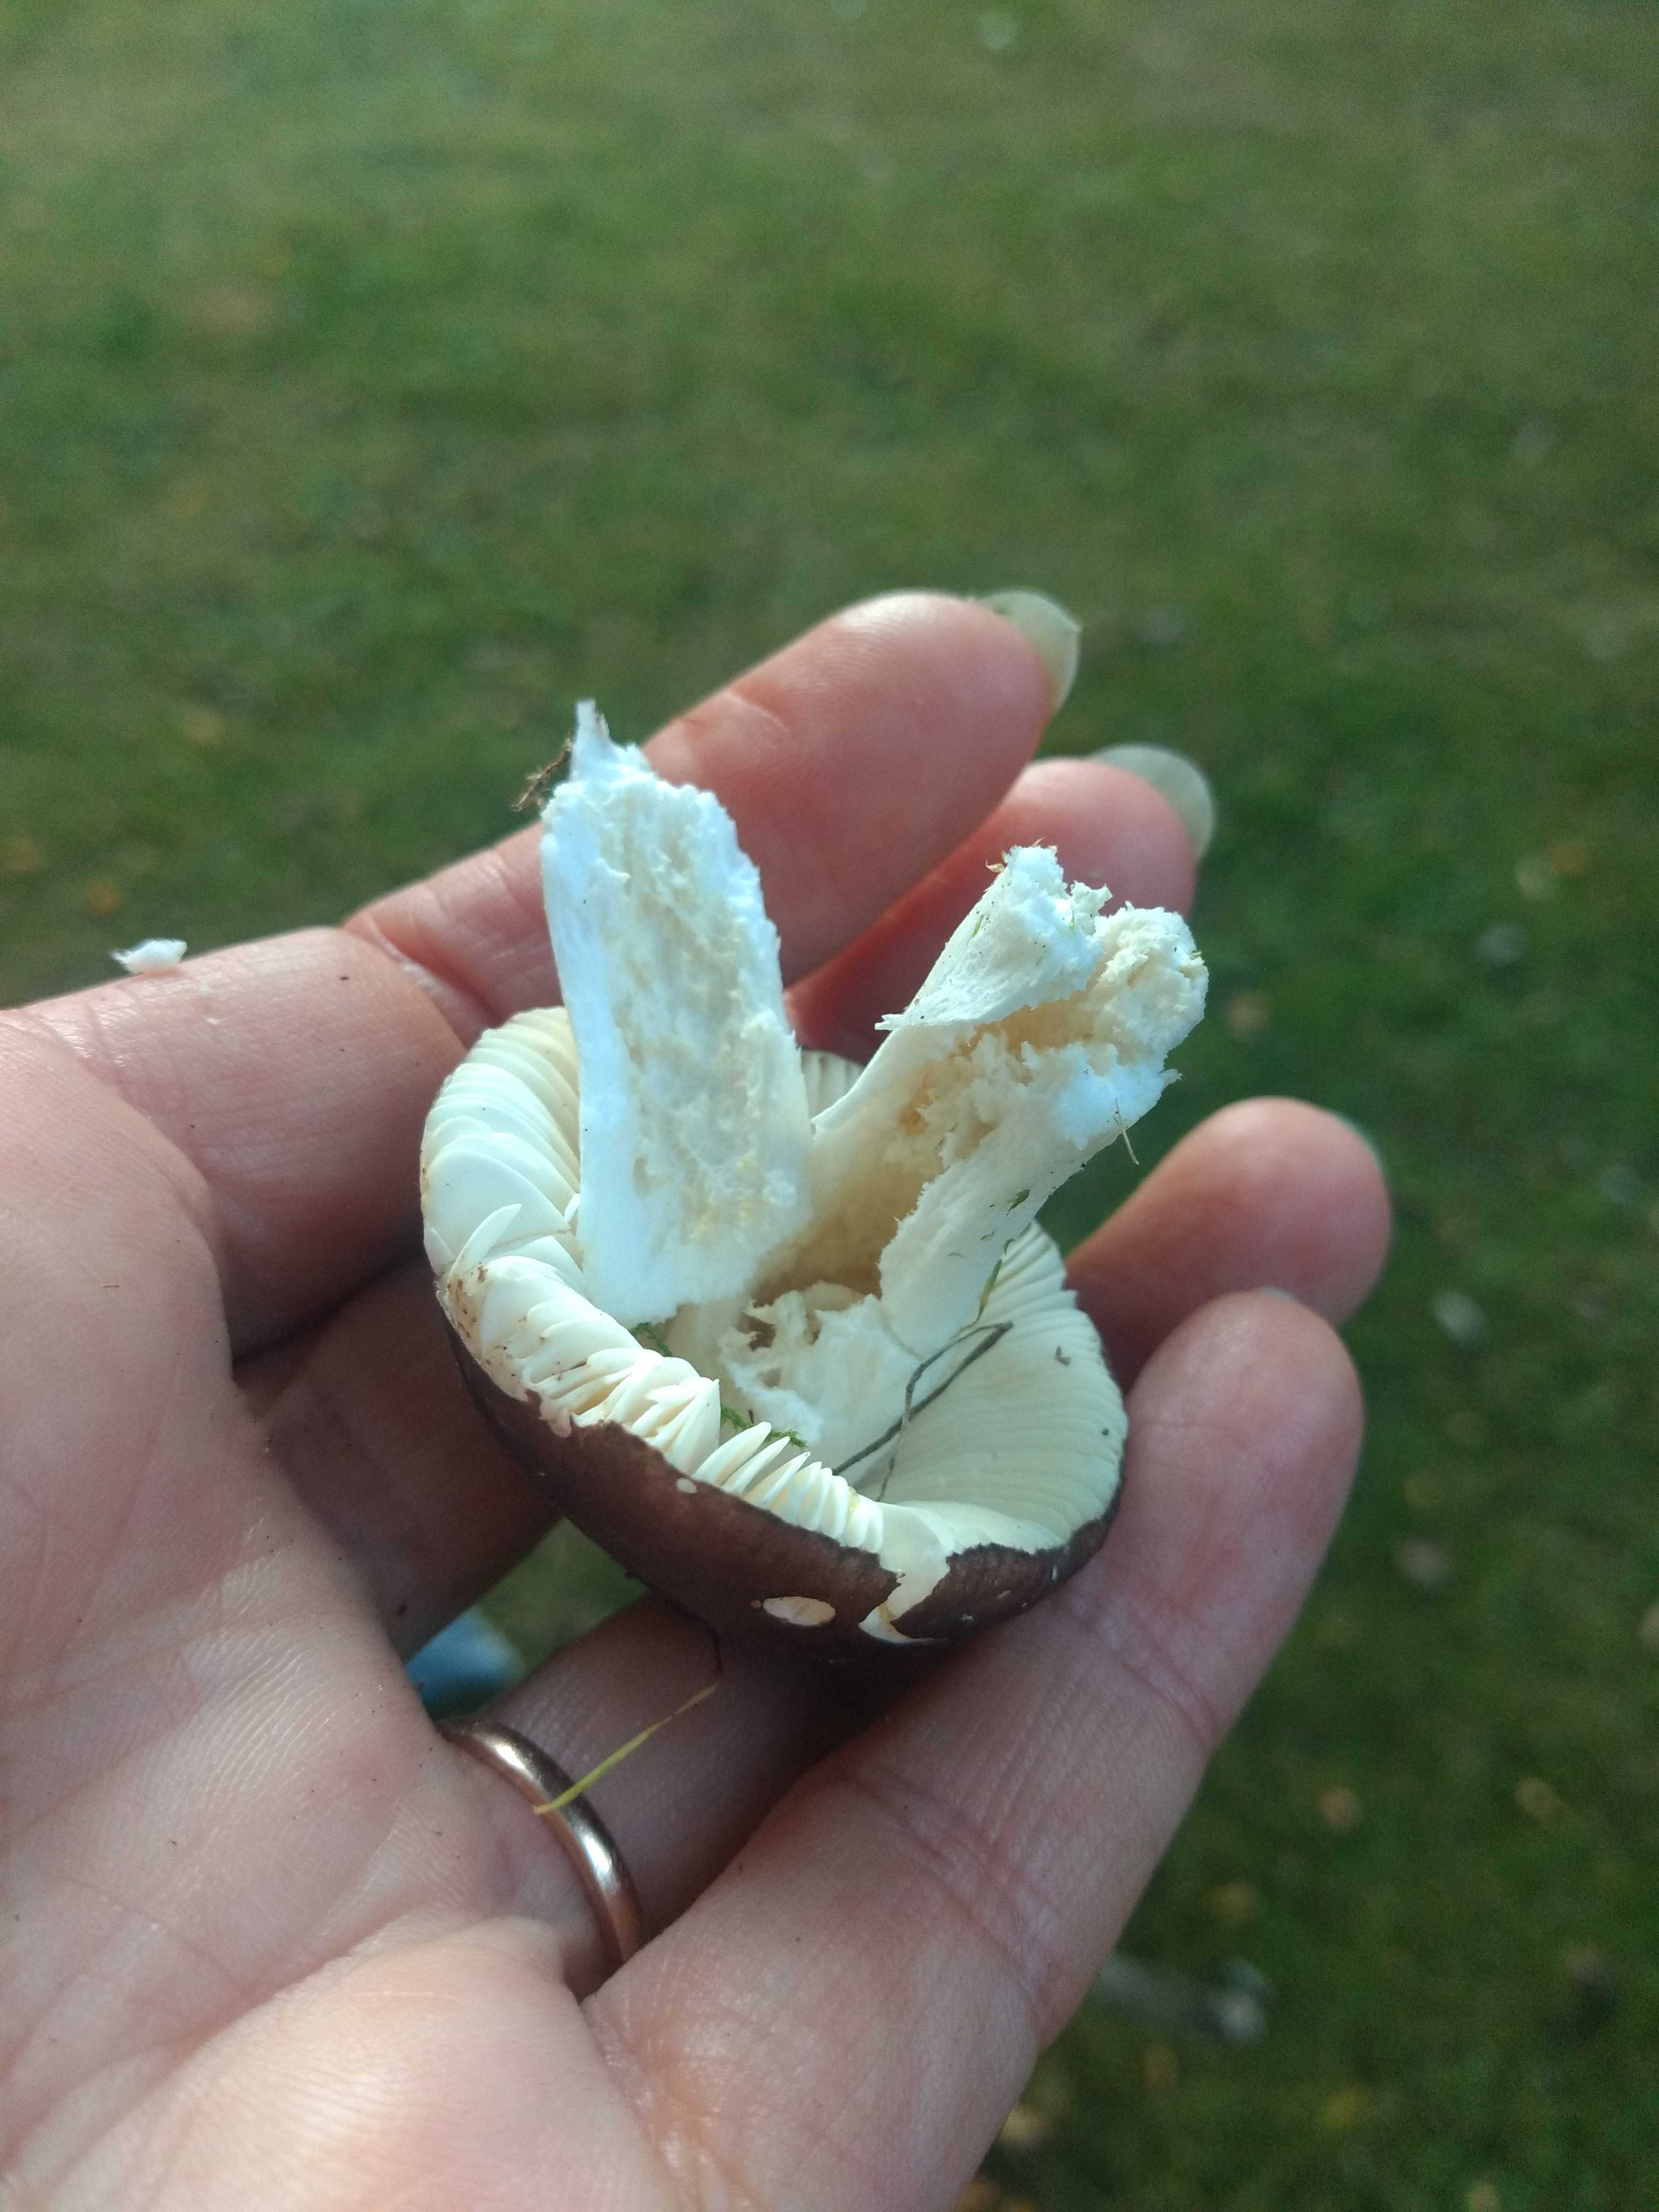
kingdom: Fungi
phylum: Basidiomycota
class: Agaricomycetes
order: Russulales
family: Russulaceae
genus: Russula
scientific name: Russula
